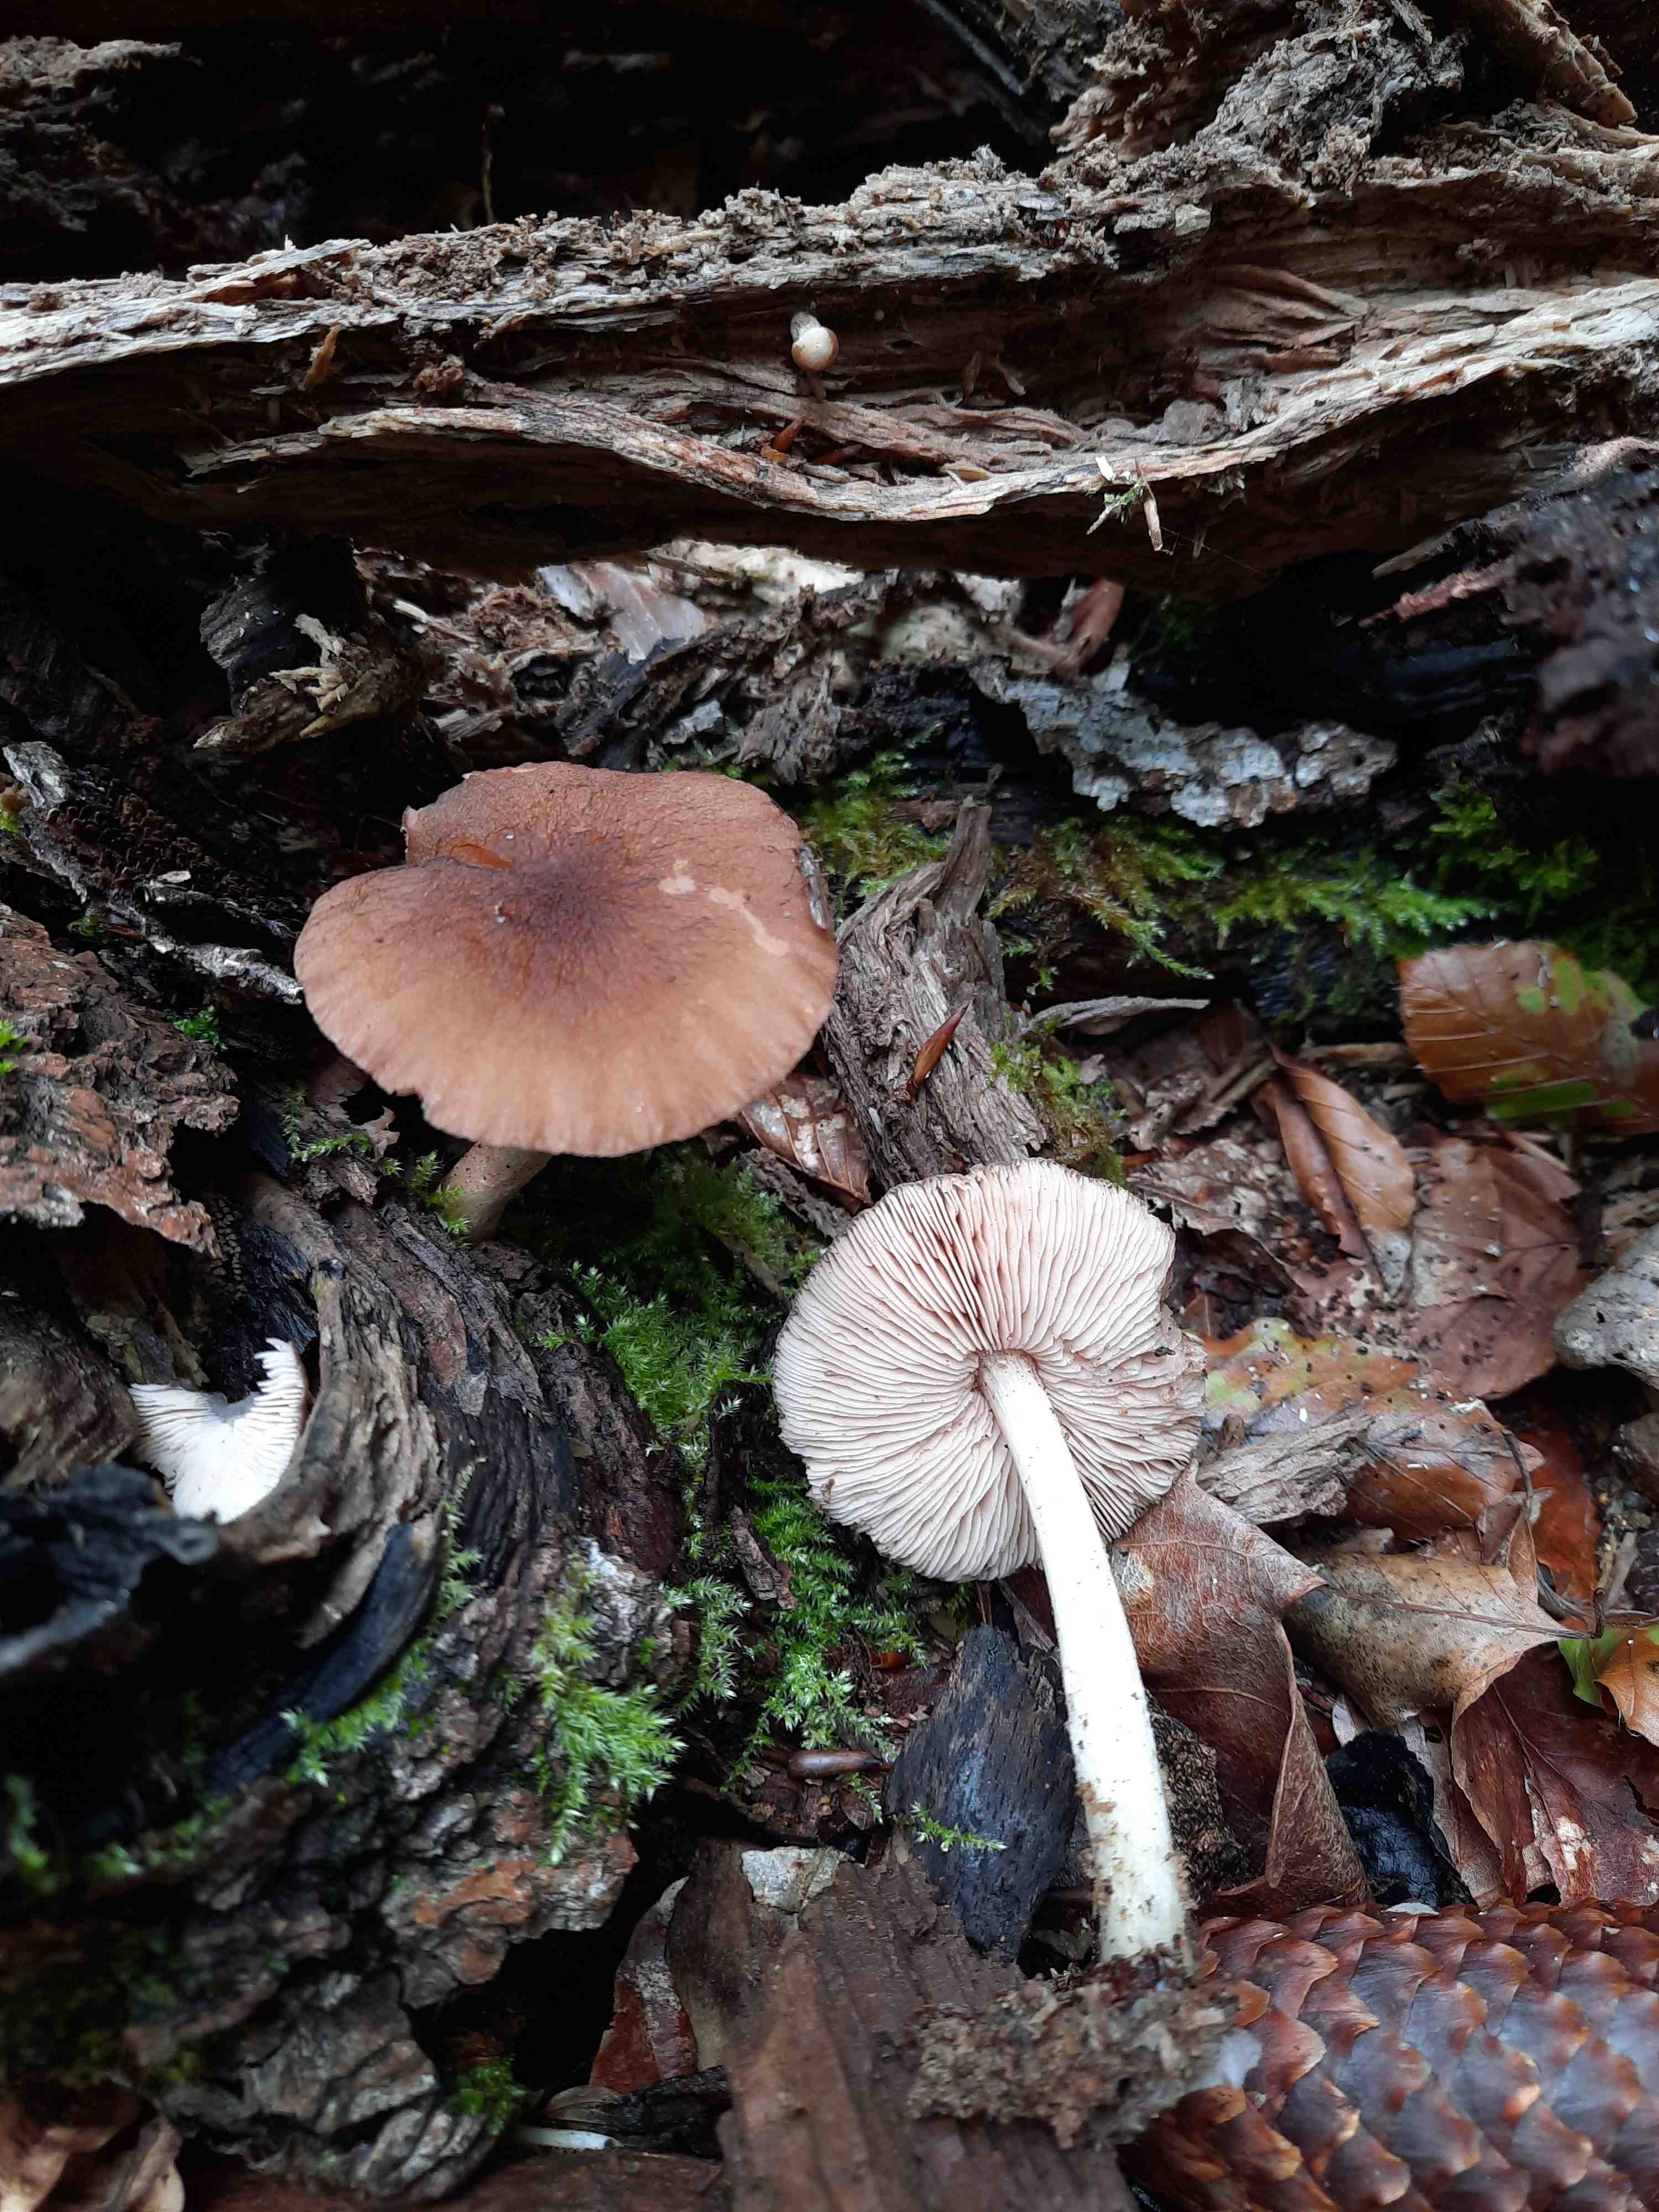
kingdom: Fungi
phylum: Basidiomycota
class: Agaricomycetes
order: Agaricales
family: Pluteaceae
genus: Pluteus
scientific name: Pluteus phlebophorus
